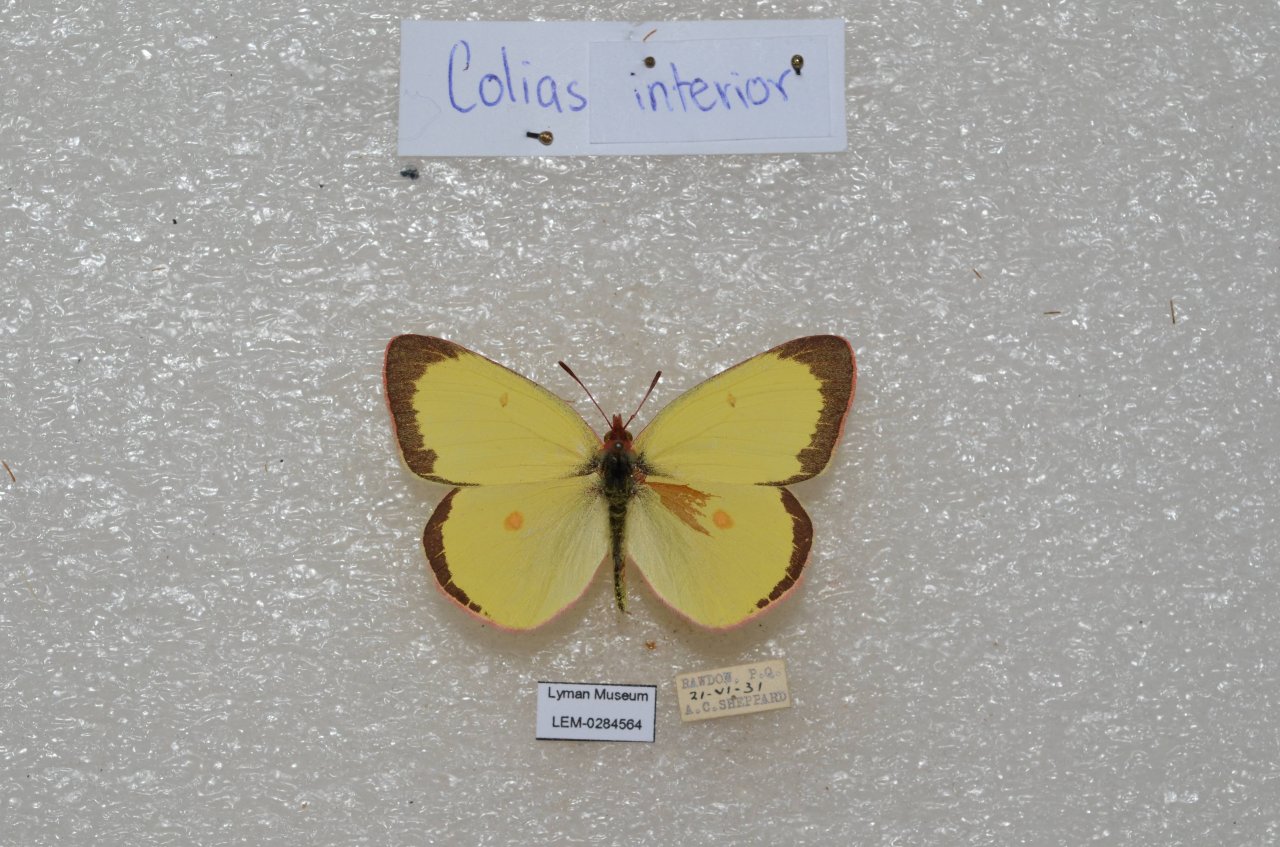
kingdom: Animalia
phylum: Arthropoda
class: Insecta
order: Lepidoptera
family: Pieridae
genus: Colias
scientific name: Colias interior
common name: Pink-edged Sulphur
